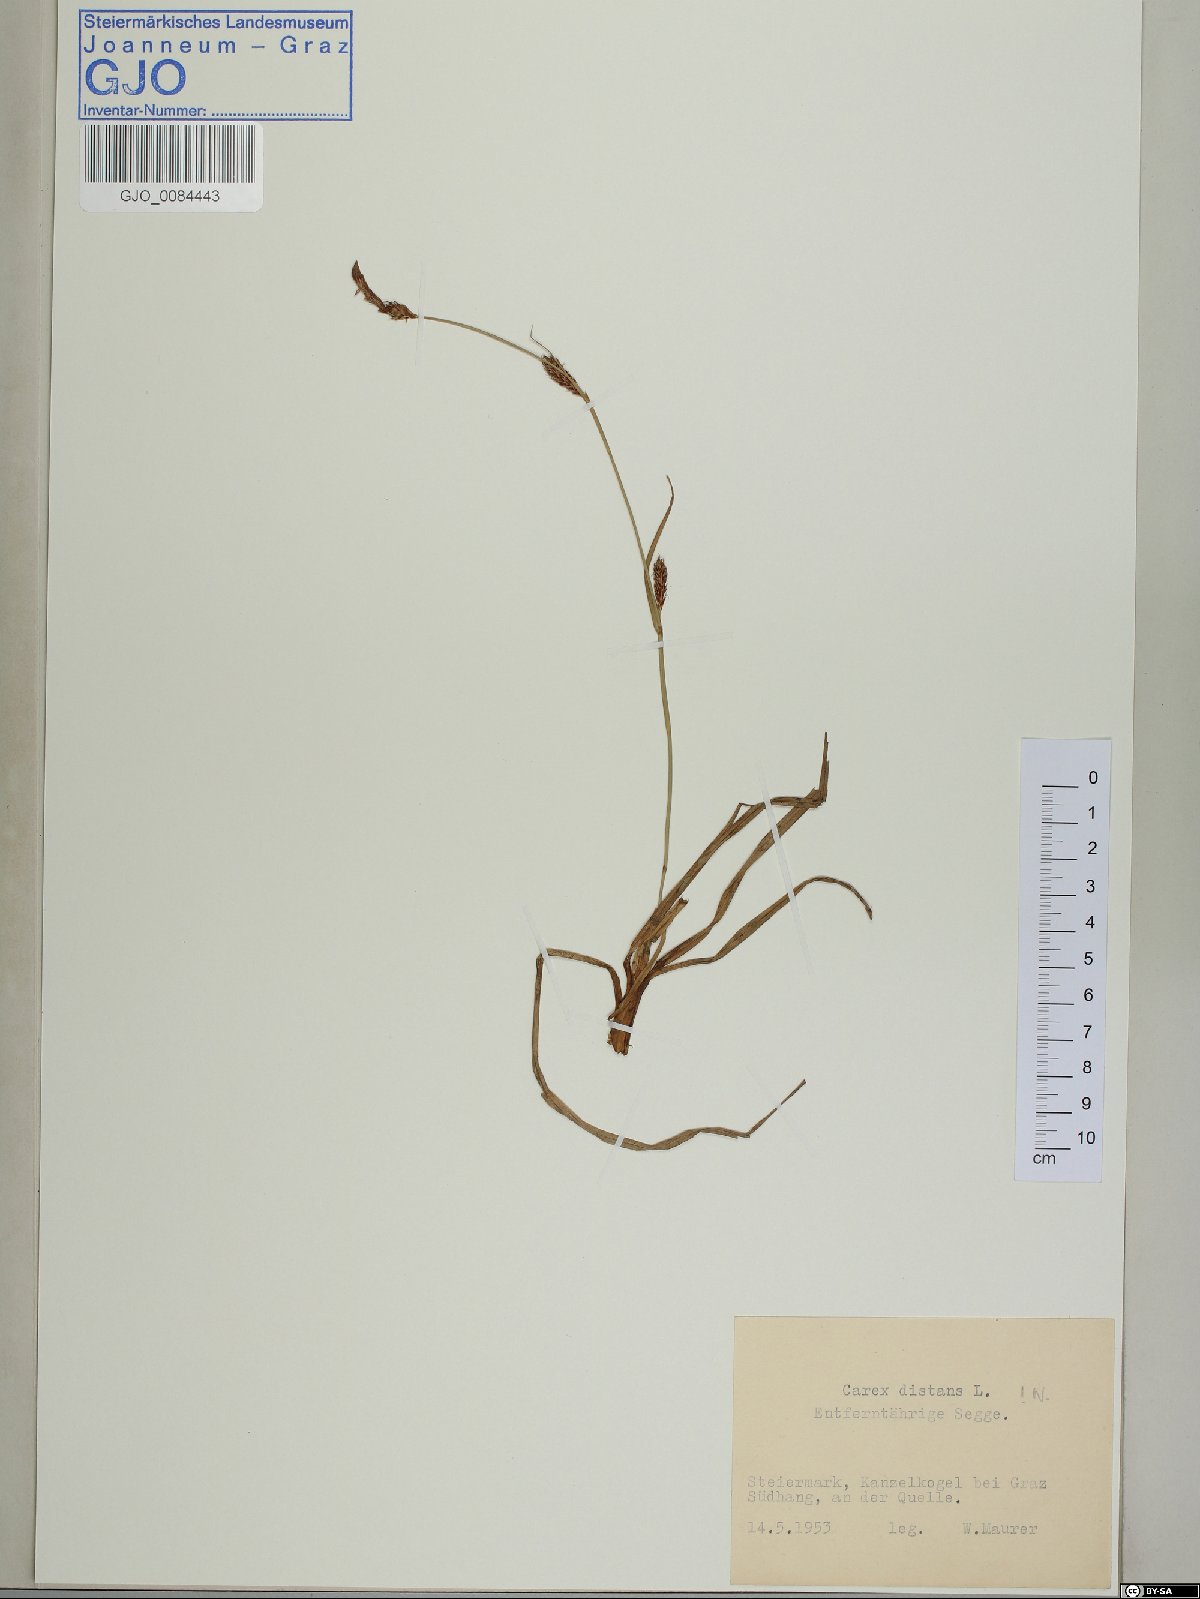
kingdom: Plantae
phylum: Tracheophyta
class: Liliopsida
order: Poales
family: Cyperaceae
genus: Carex
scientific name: Carex distans
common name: Distant sedge
